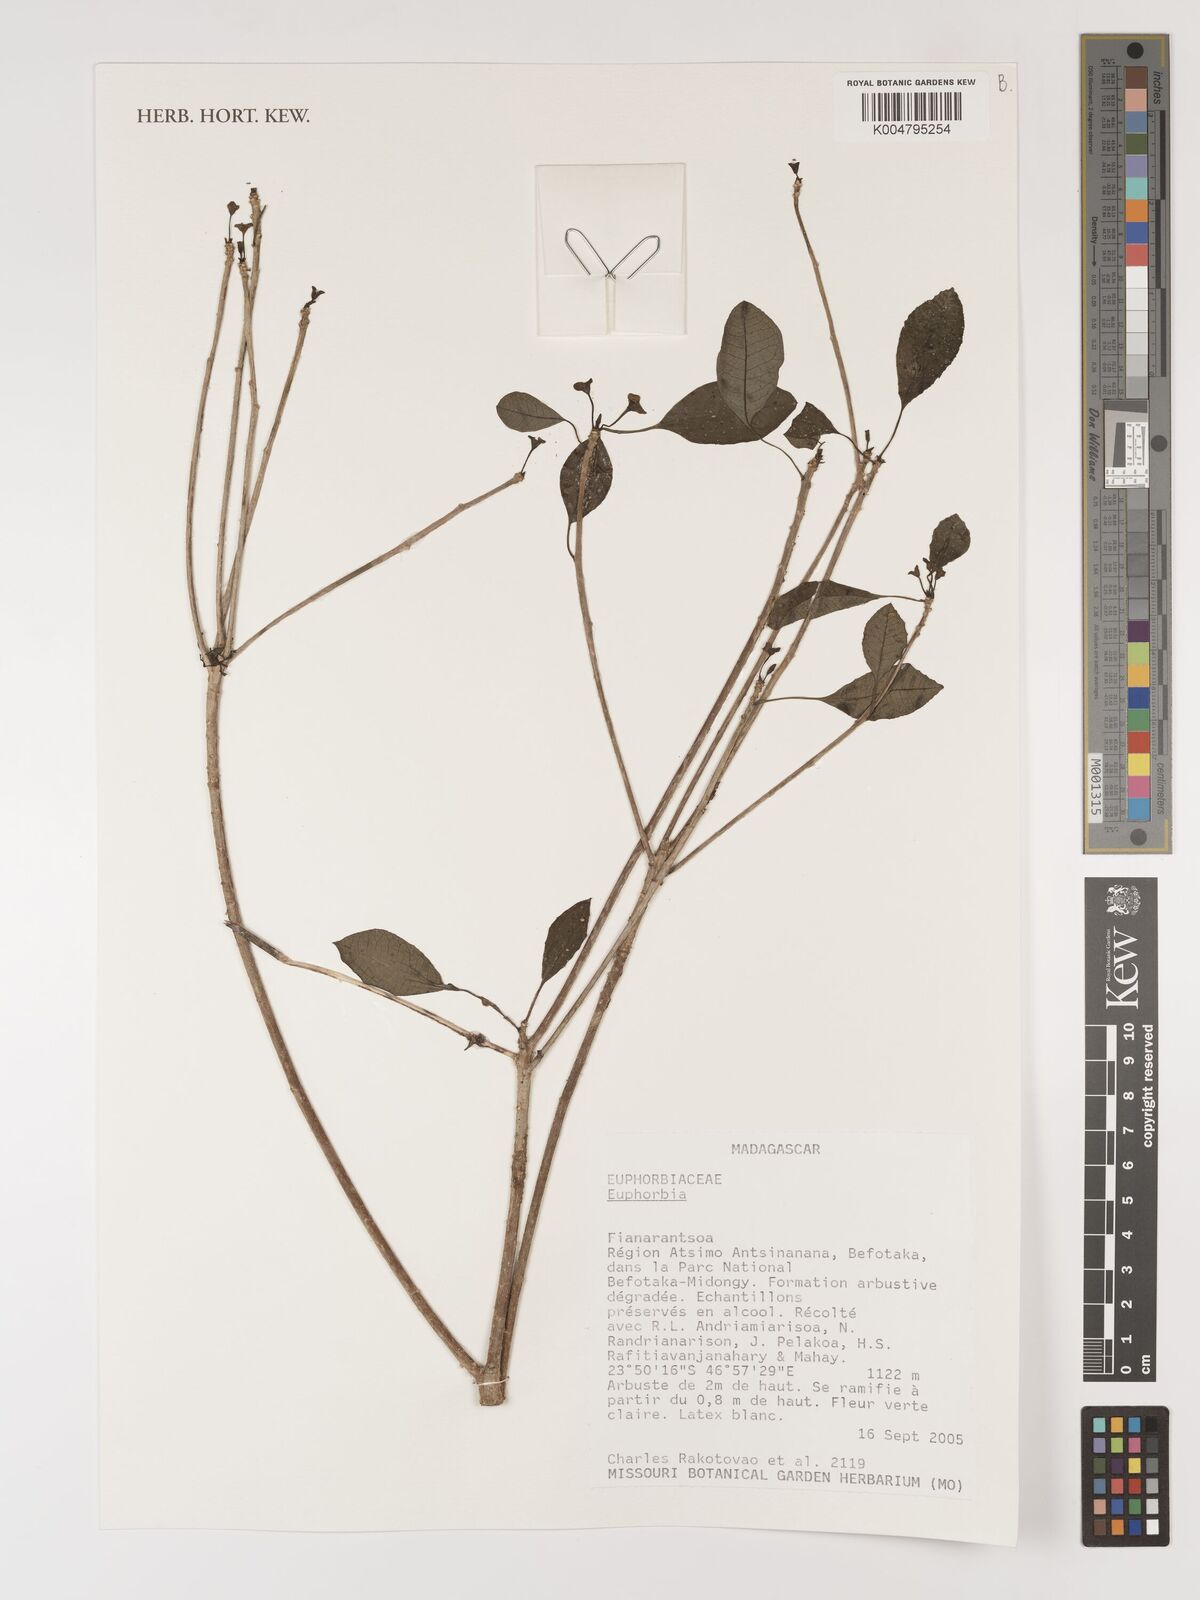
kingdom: Plantae
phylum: Tracheophyta
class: Magnoliopsida
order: Malpighiales
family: Euphorbiaceae
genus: Euphorbia
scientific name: Euphorbia
